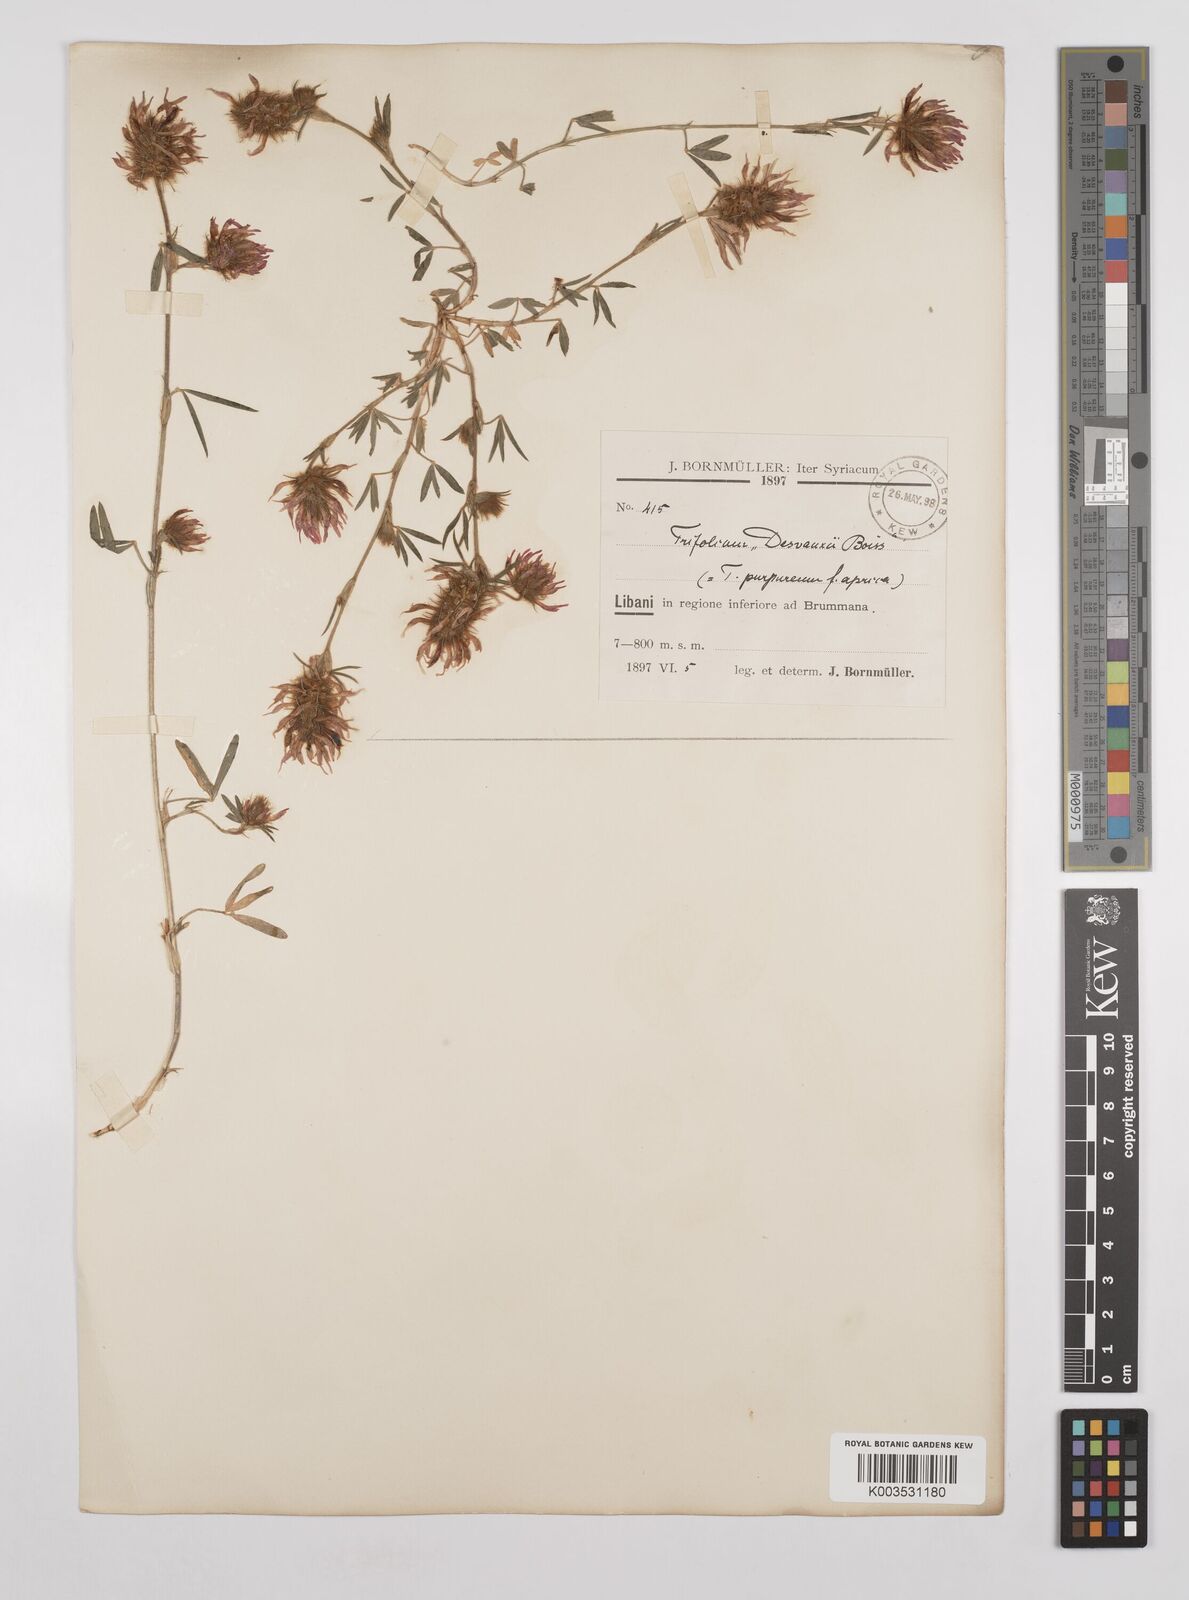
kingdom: Plantae
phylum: Tracheophyta
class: Magnoliopsida
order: Fabales
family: Fabaceae
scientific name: Fabaceae
